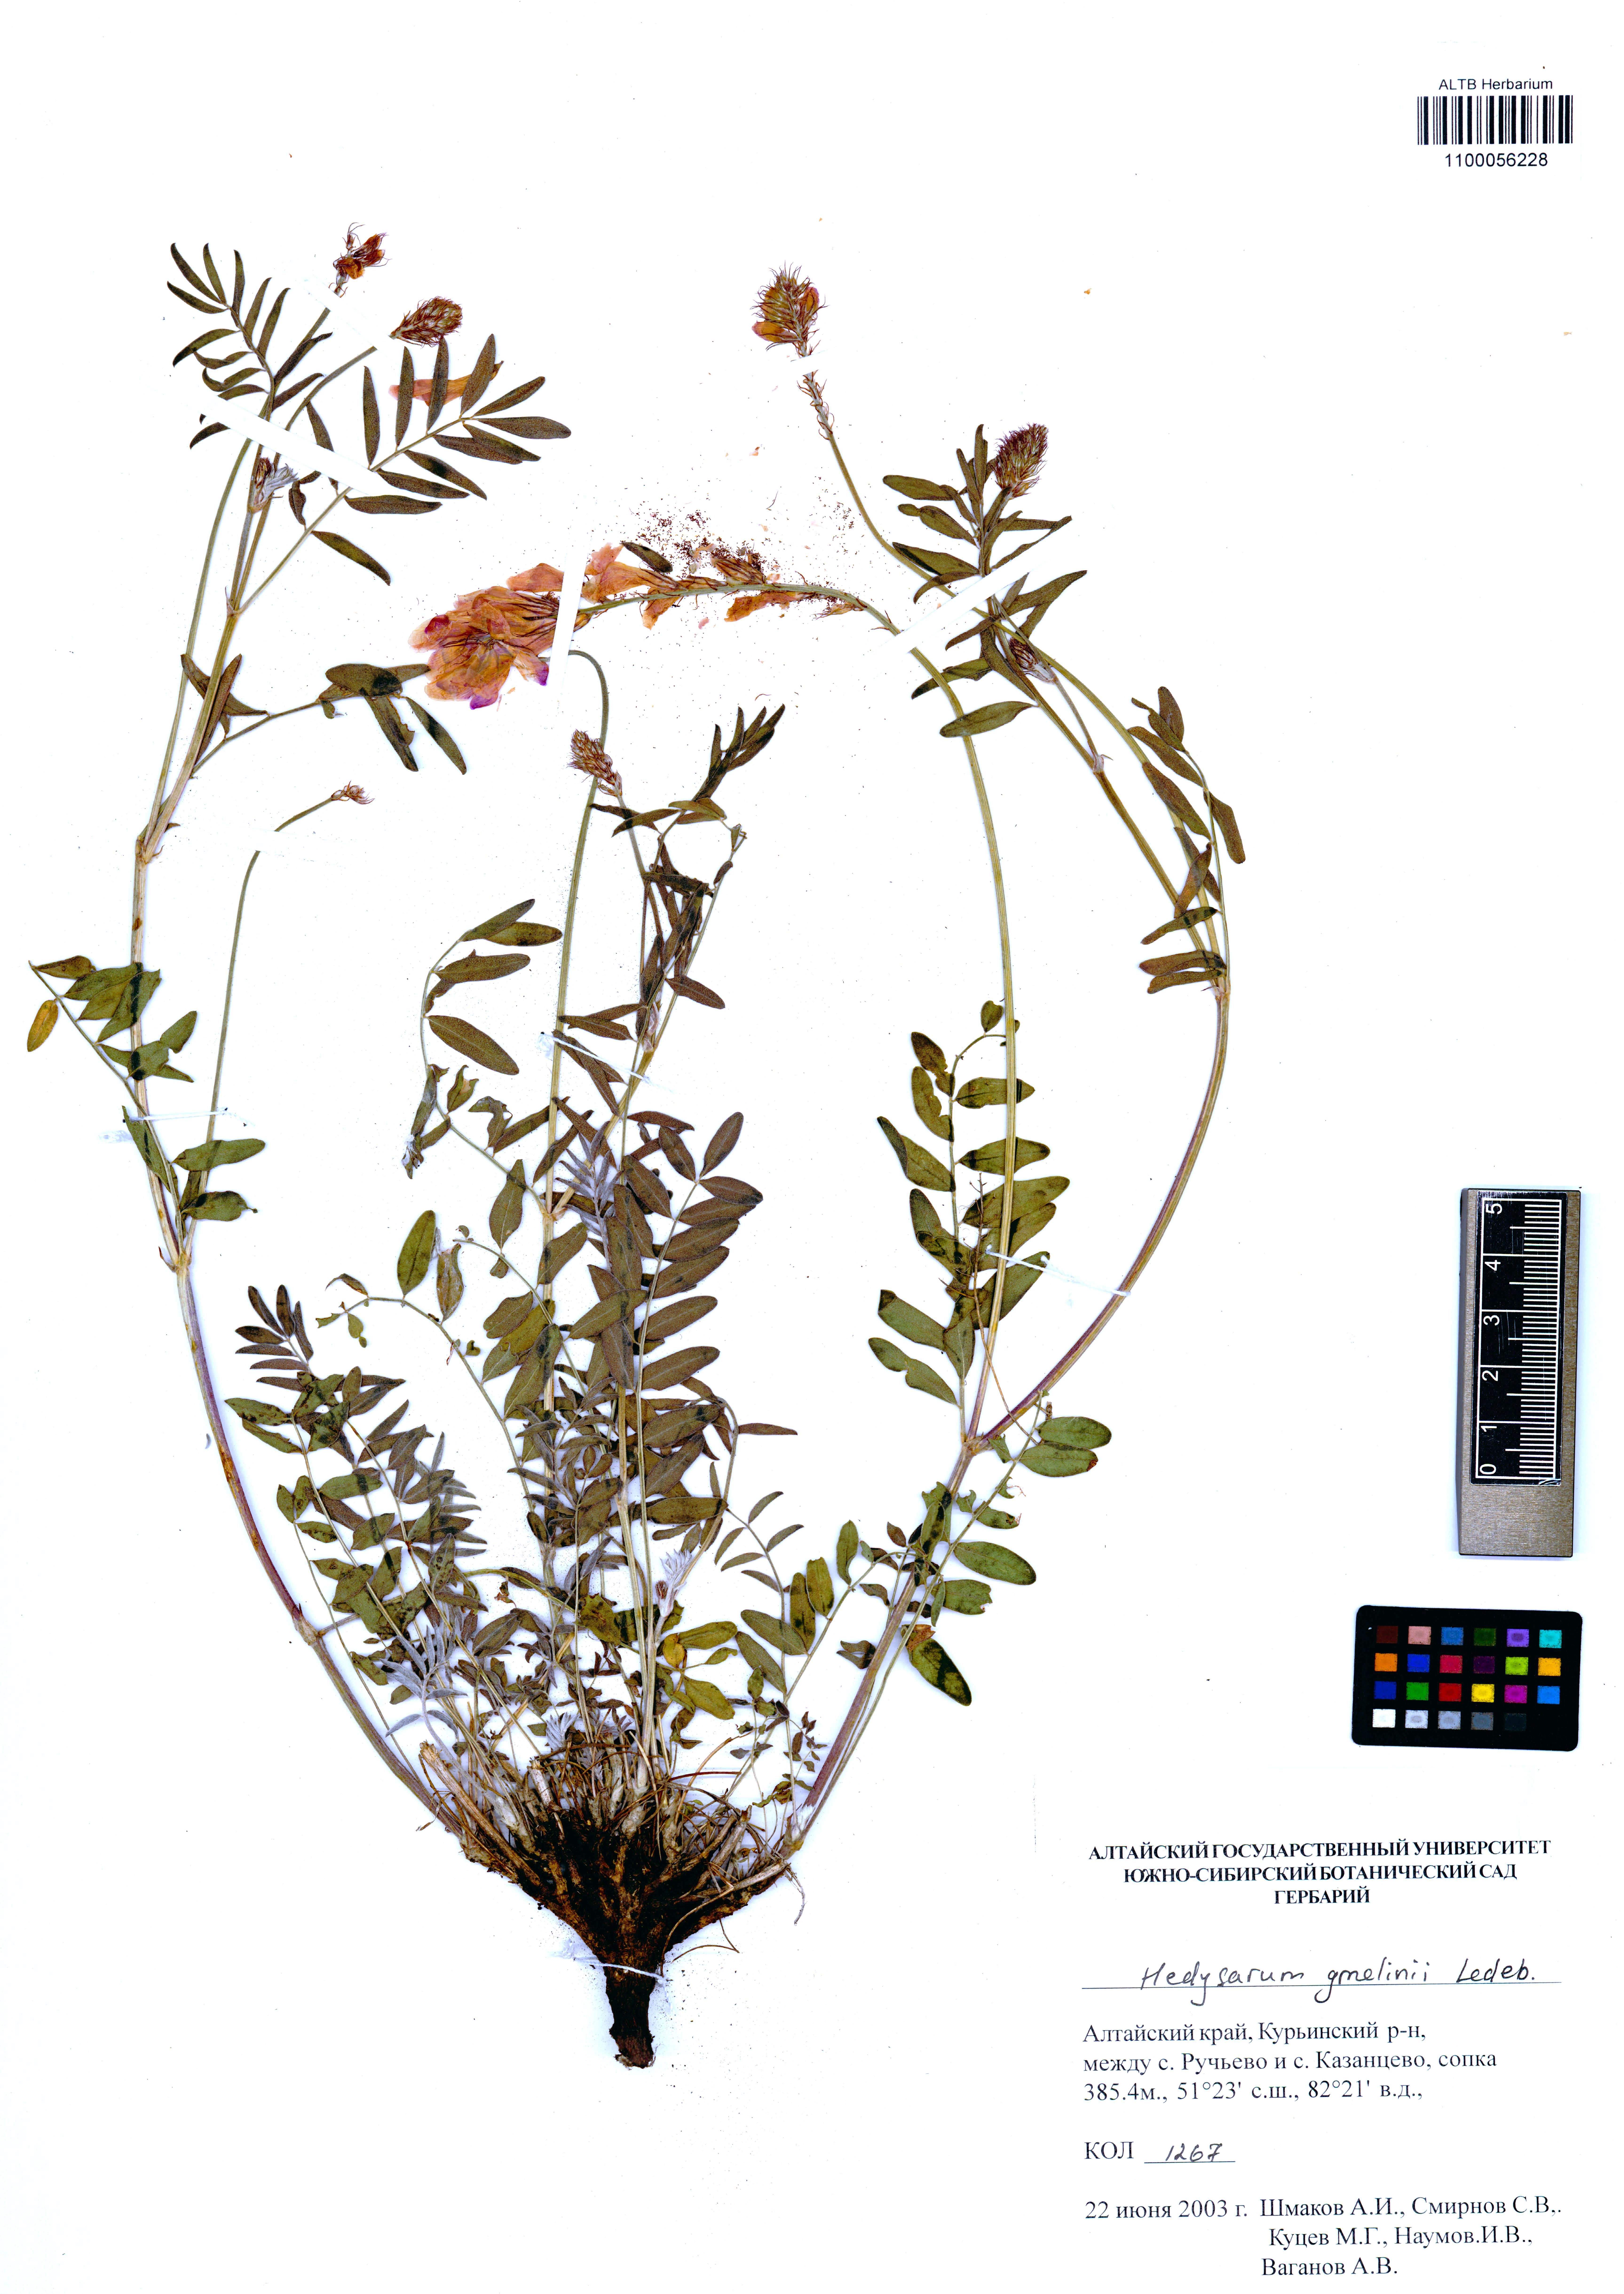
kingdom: Plantae
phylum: Tracheophyta
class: Magnoliopsida
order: Fabales
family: Fabaceae
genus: Hedysarum
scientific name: Hedysarum gmelinii
